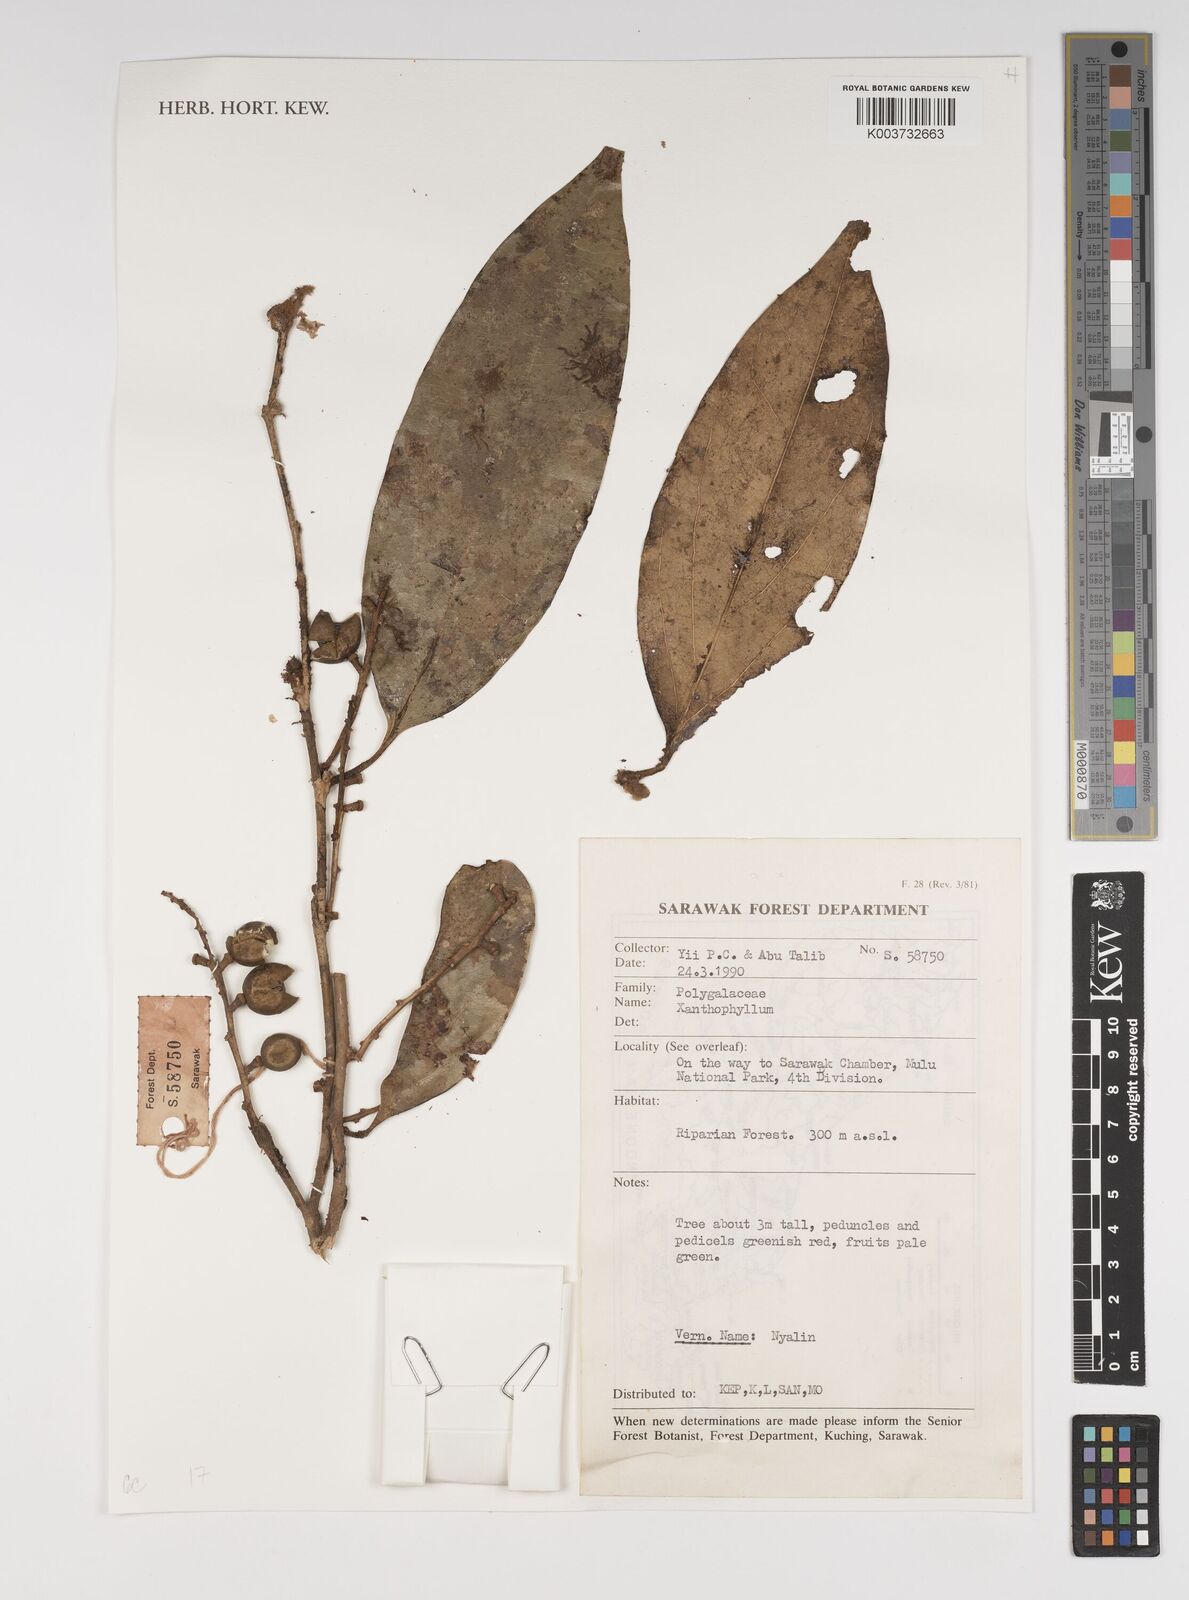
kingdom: Plantae
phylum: Tracheophyta
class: Magnoliopsida
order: Fabales
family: Polygalaceae
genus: Xanthophyllum
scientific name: Xanthophyllum
